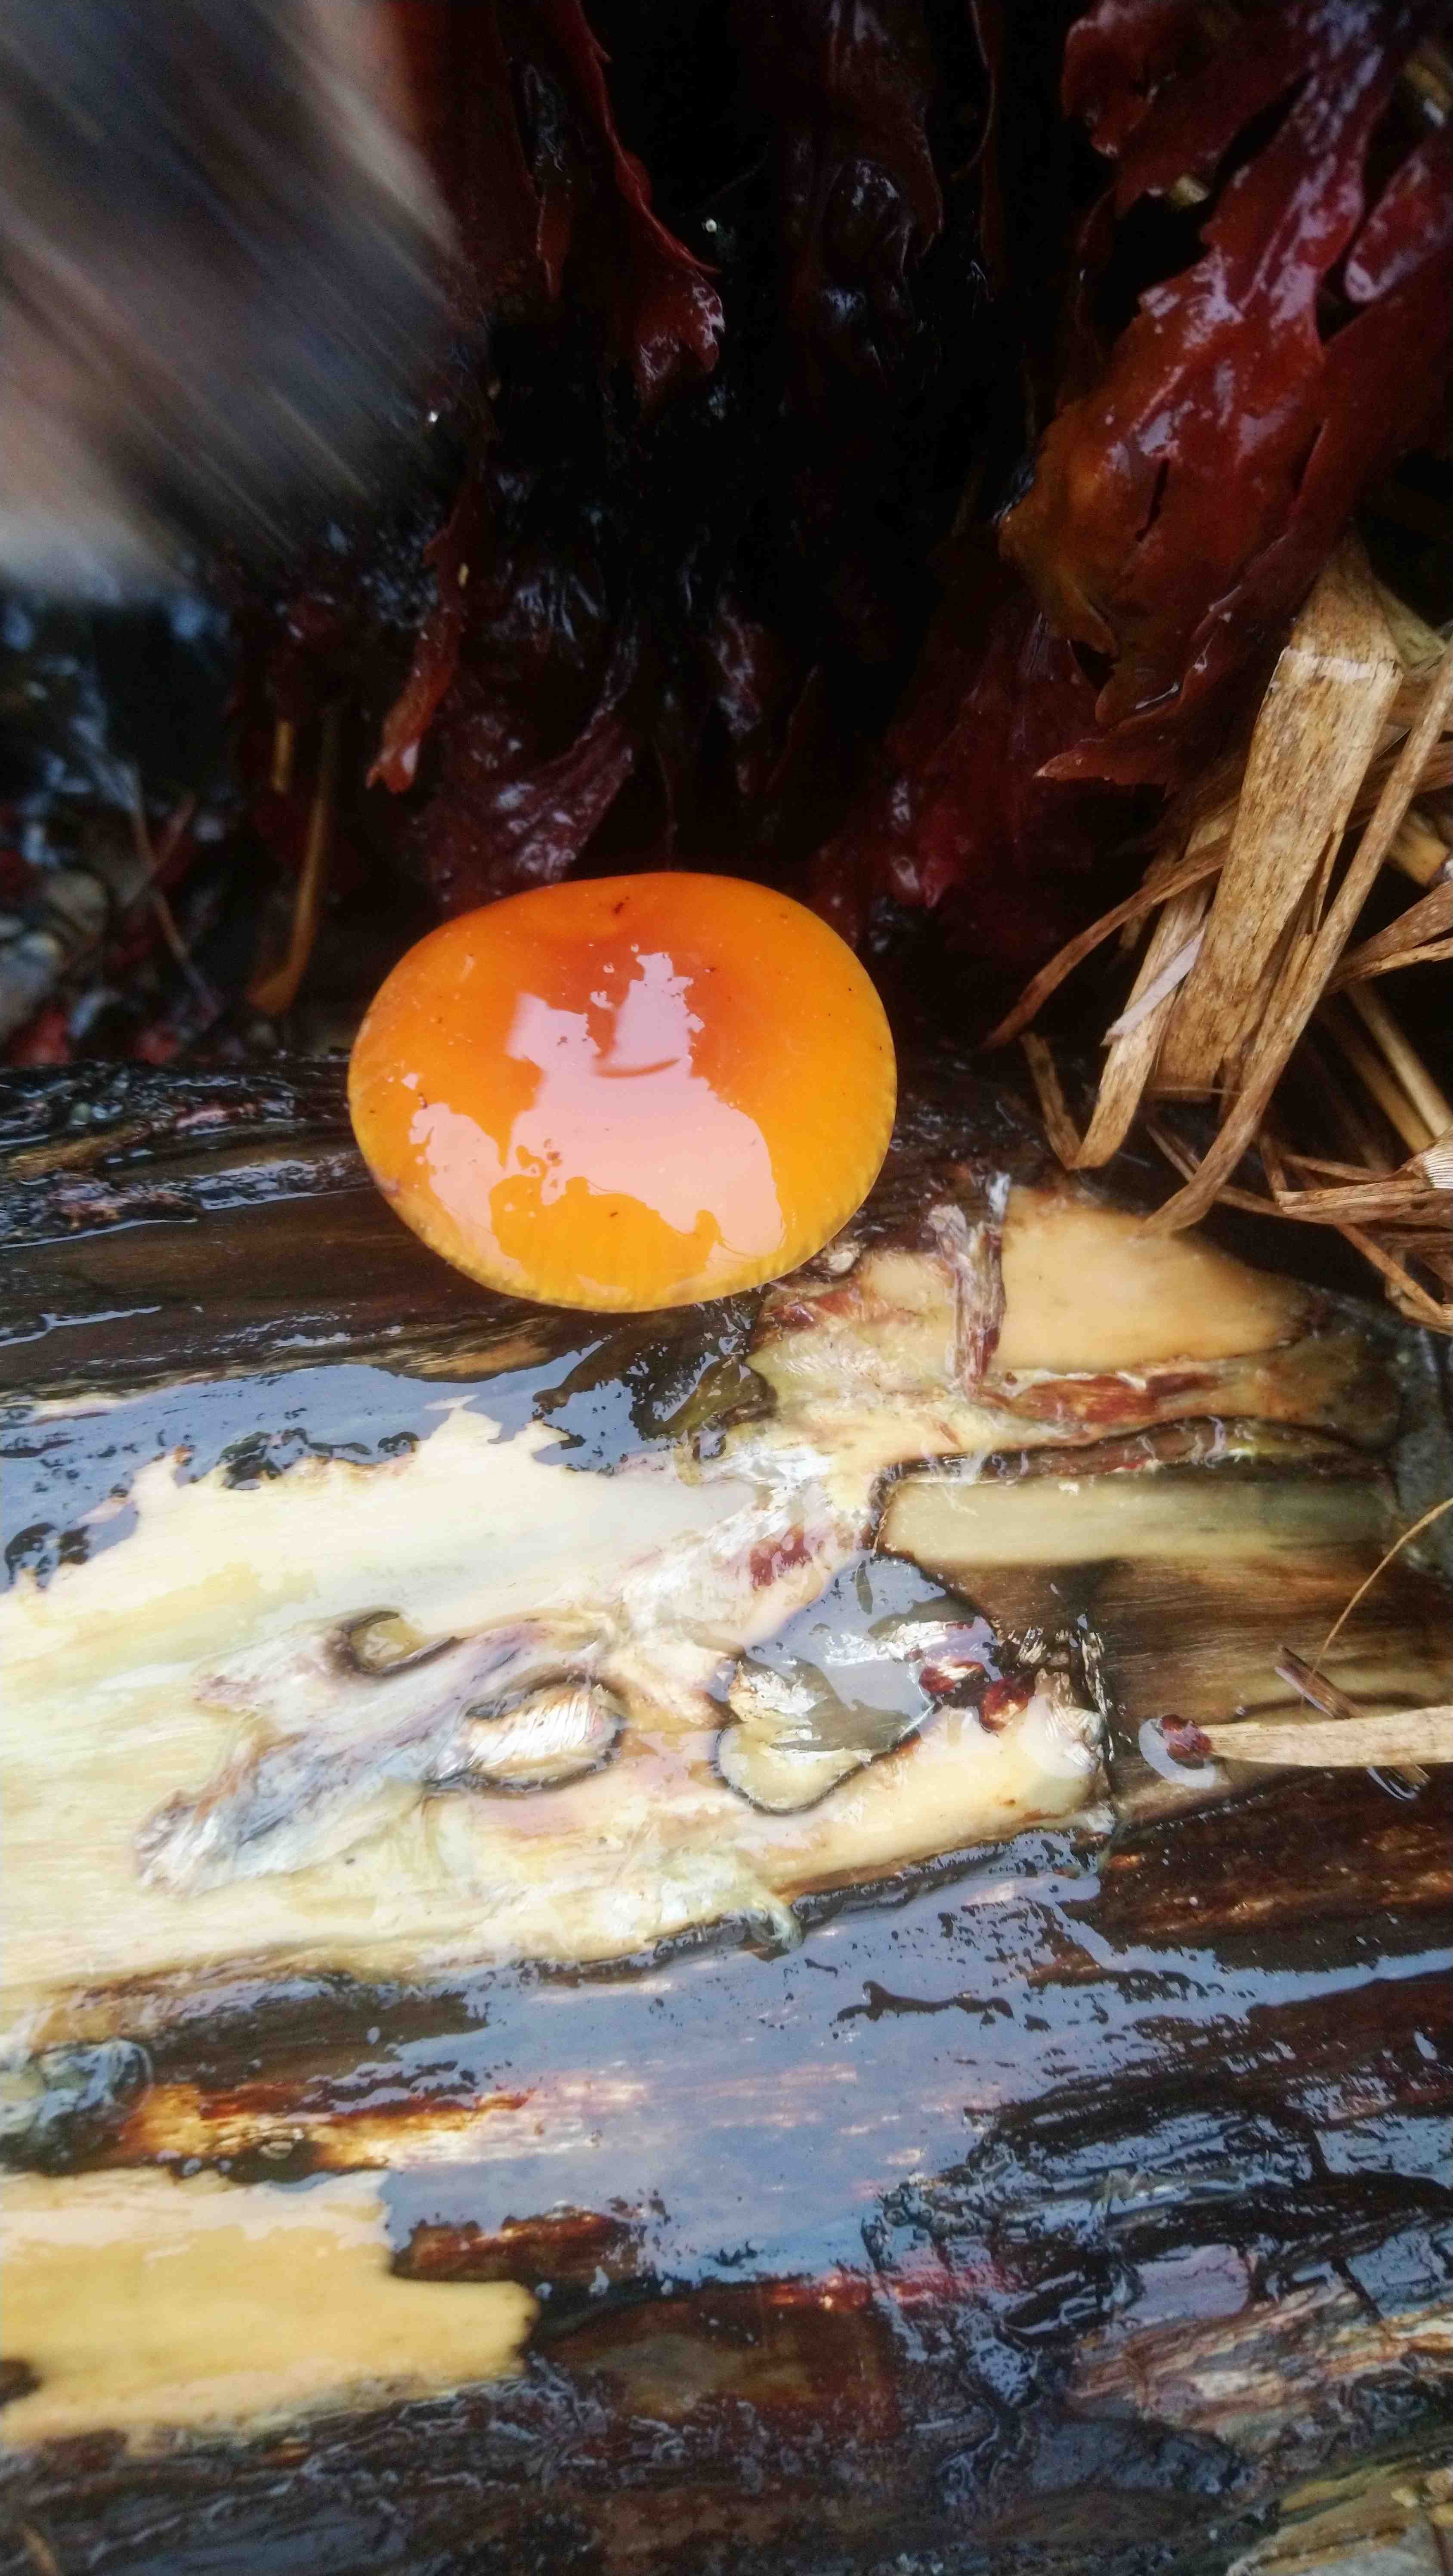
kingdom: Fungi
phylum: Basidiomycota
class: Agaricomycetes
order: Agaricales
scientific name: Agaricales
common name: champignonordenen
